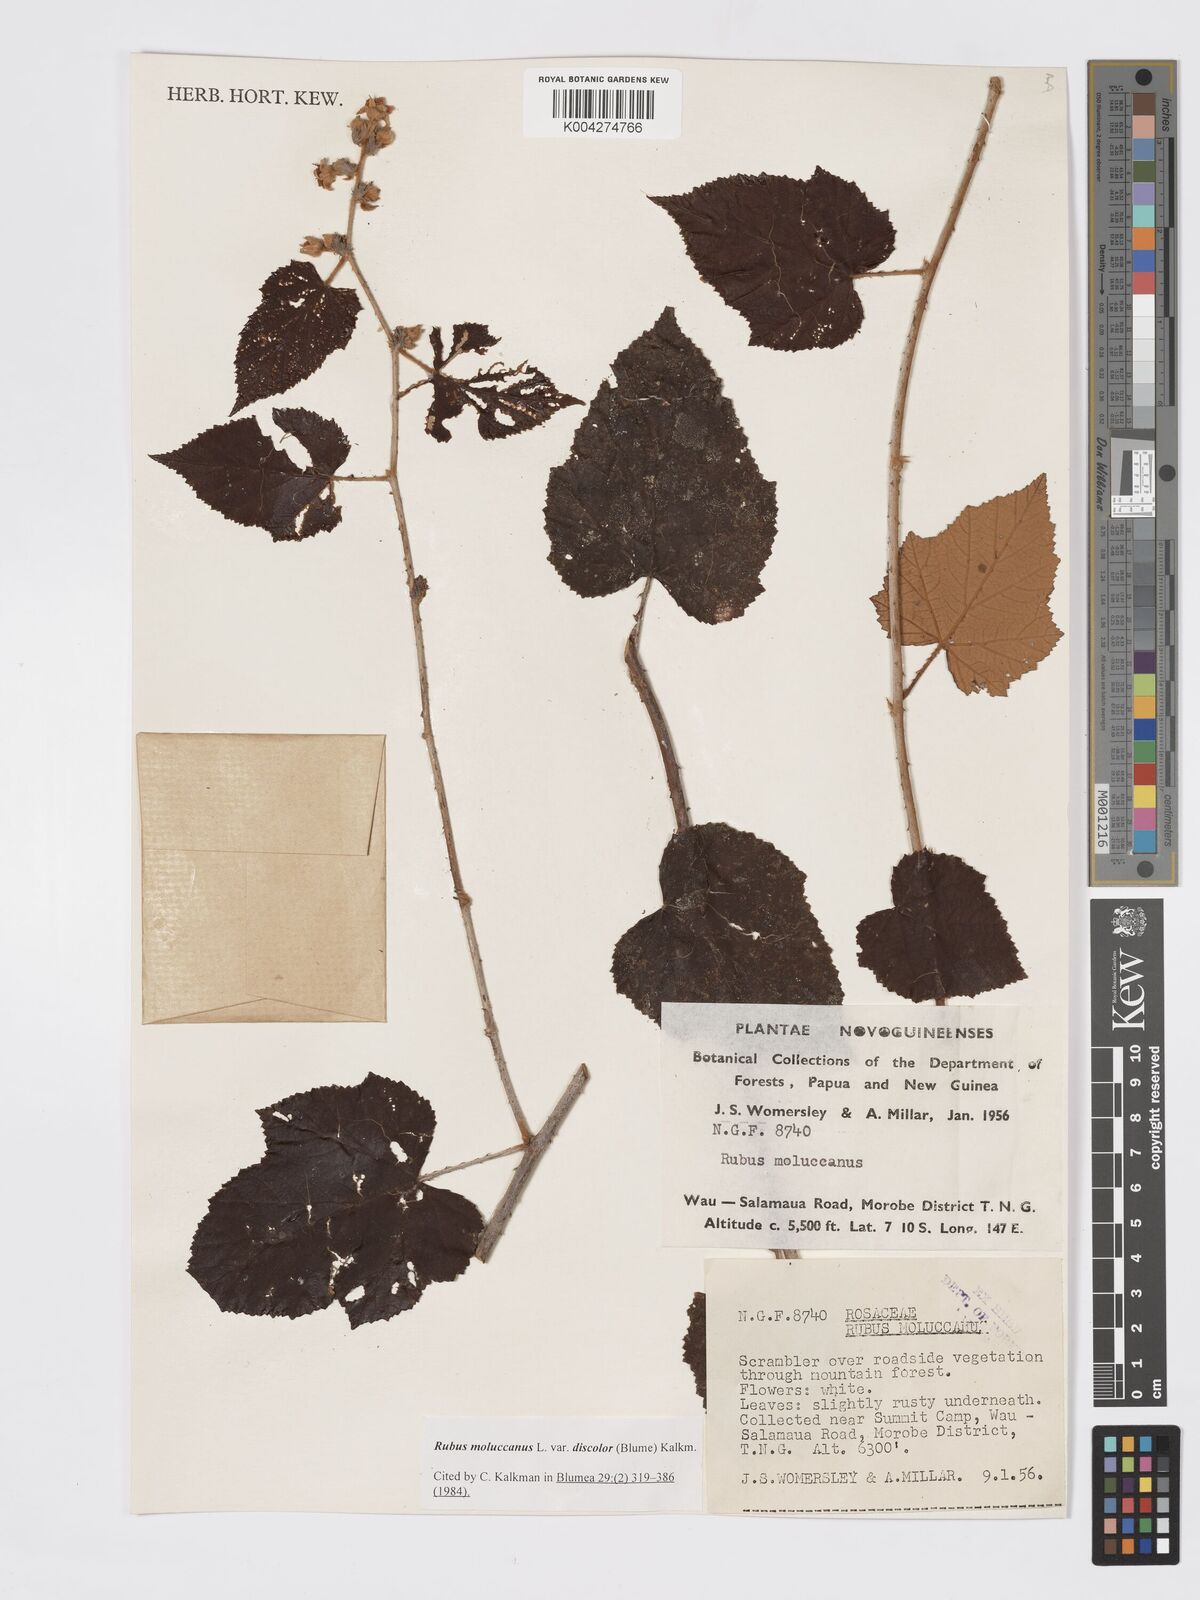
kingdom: Plantae
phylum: Tracheophyta
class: Magnoliopsida
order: Rosales
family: Rosaceae
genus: Rubus
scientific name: Rubus moluccanus
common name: Wild raspberry
